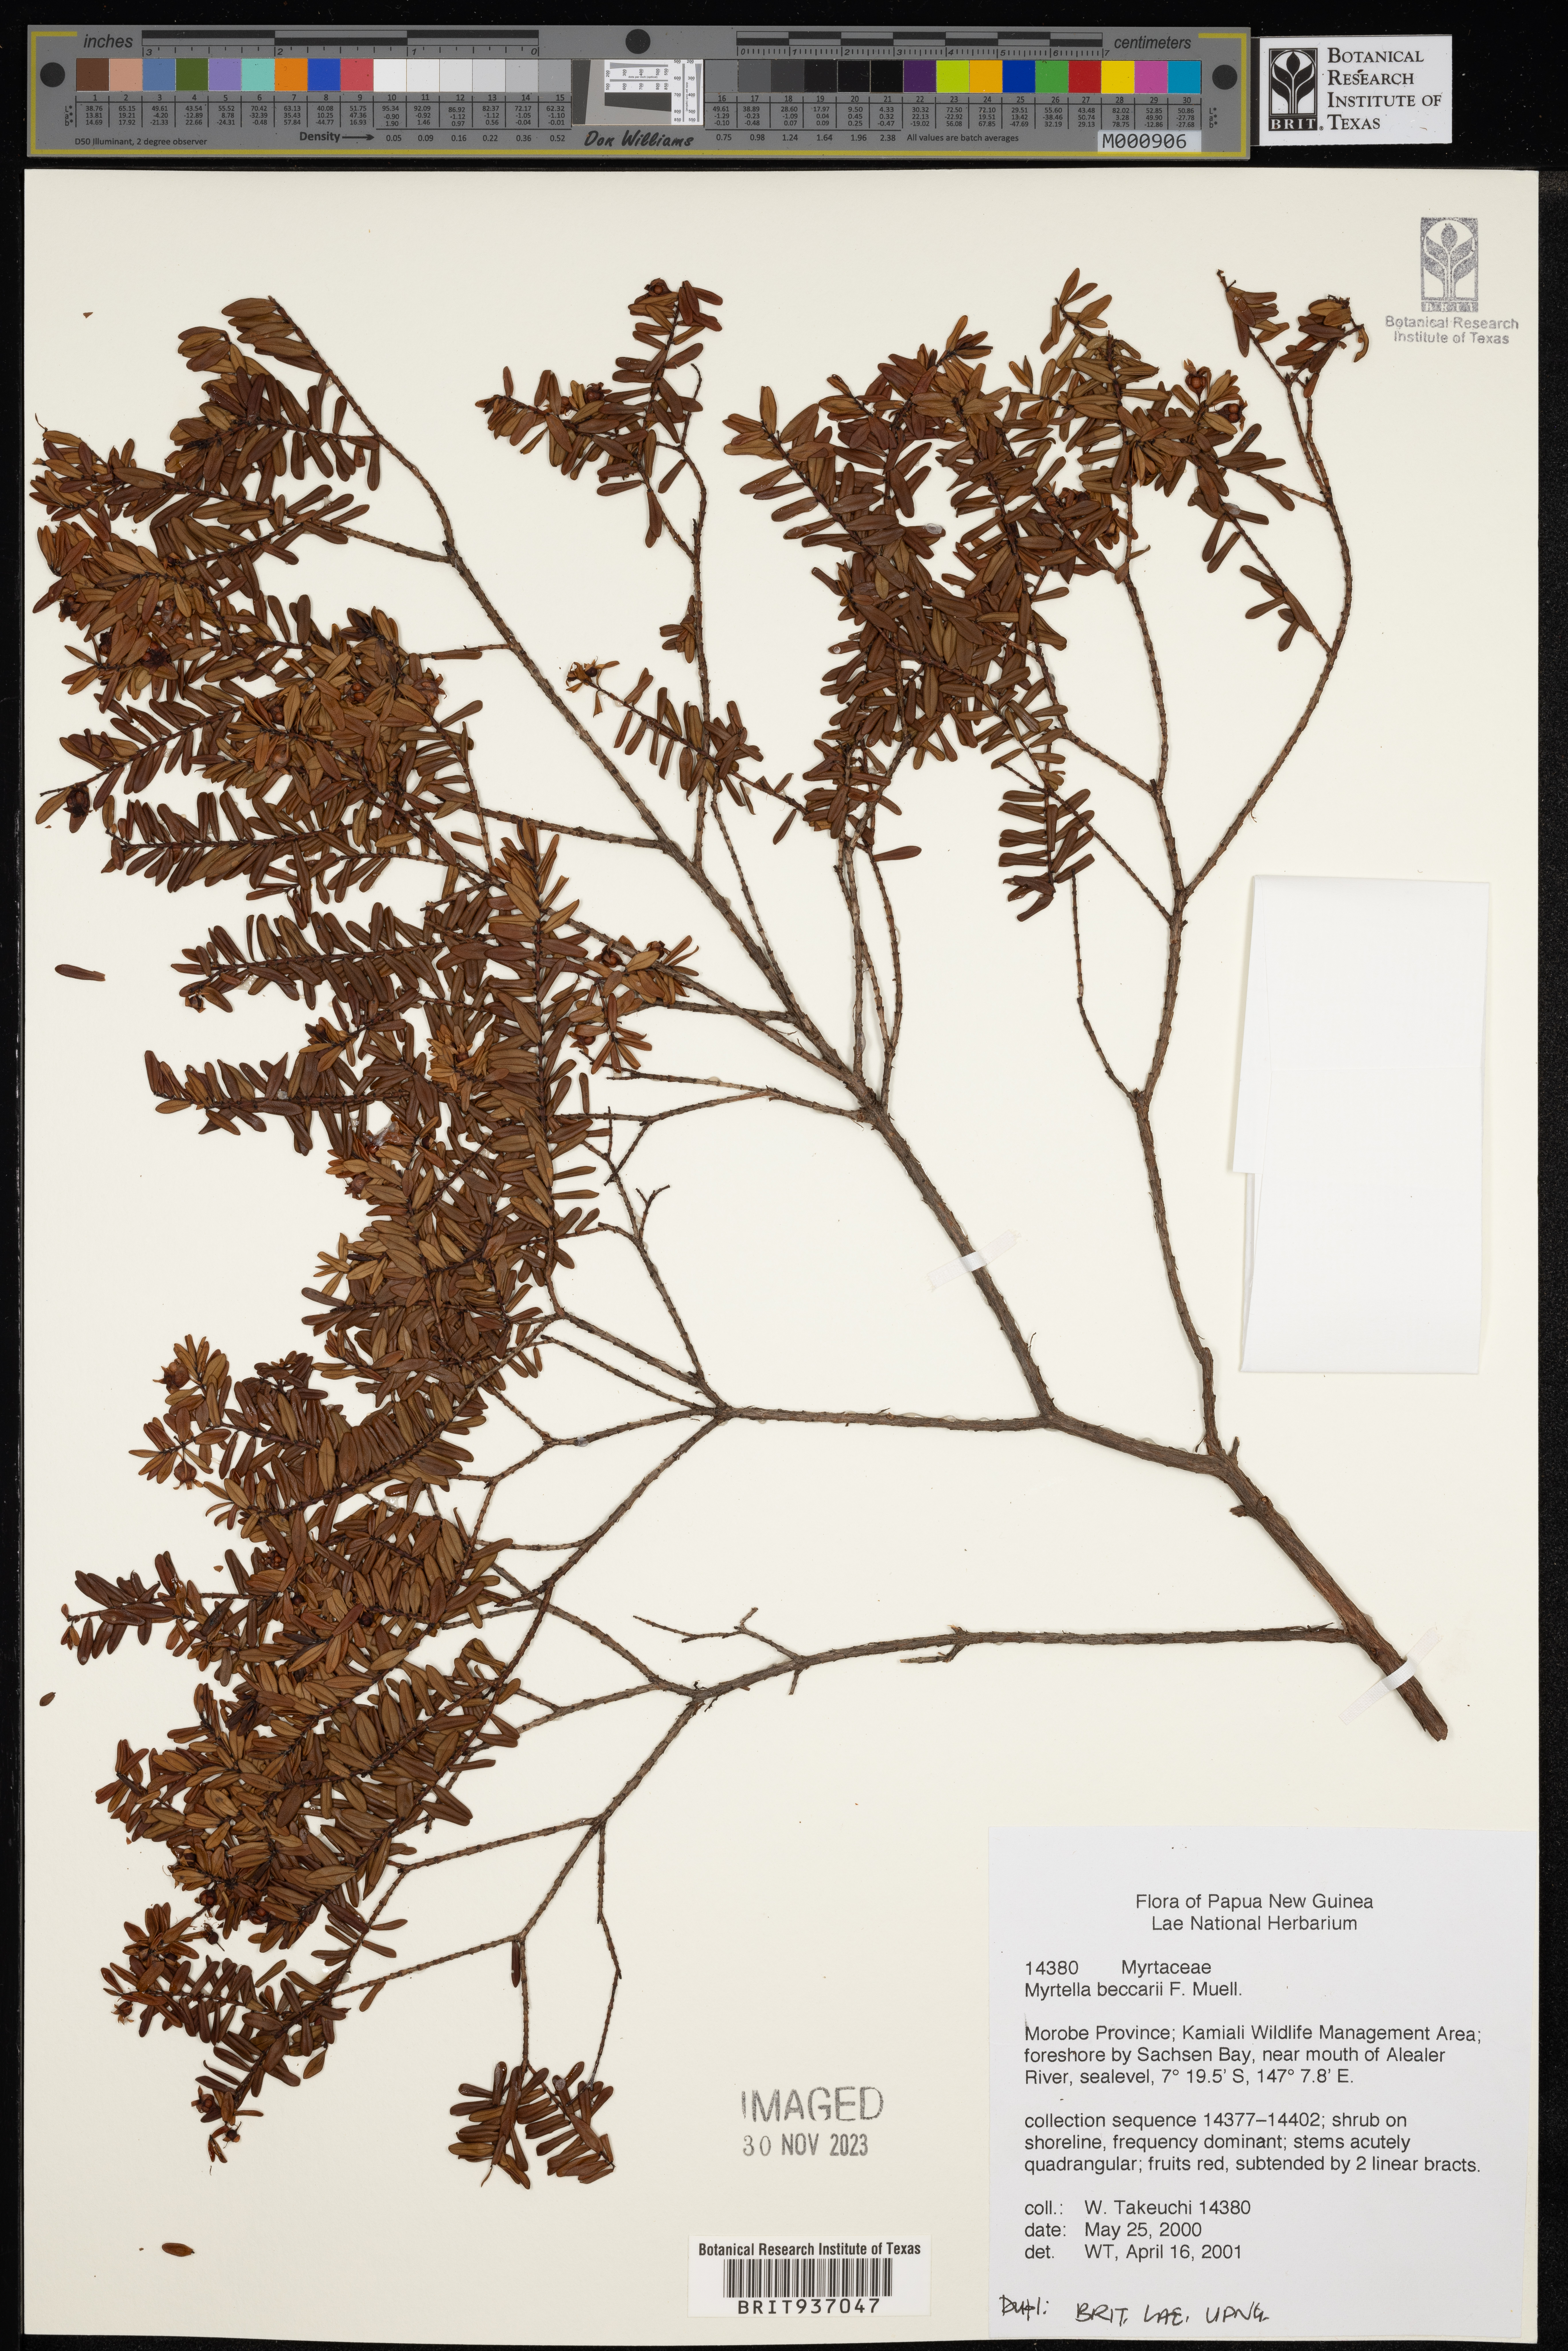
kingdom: Plantae
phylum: Tracheophyta
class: Magnoliopsida
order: Myrtales
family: Myrtaceae
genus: Myrtella
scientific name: Myrtella
